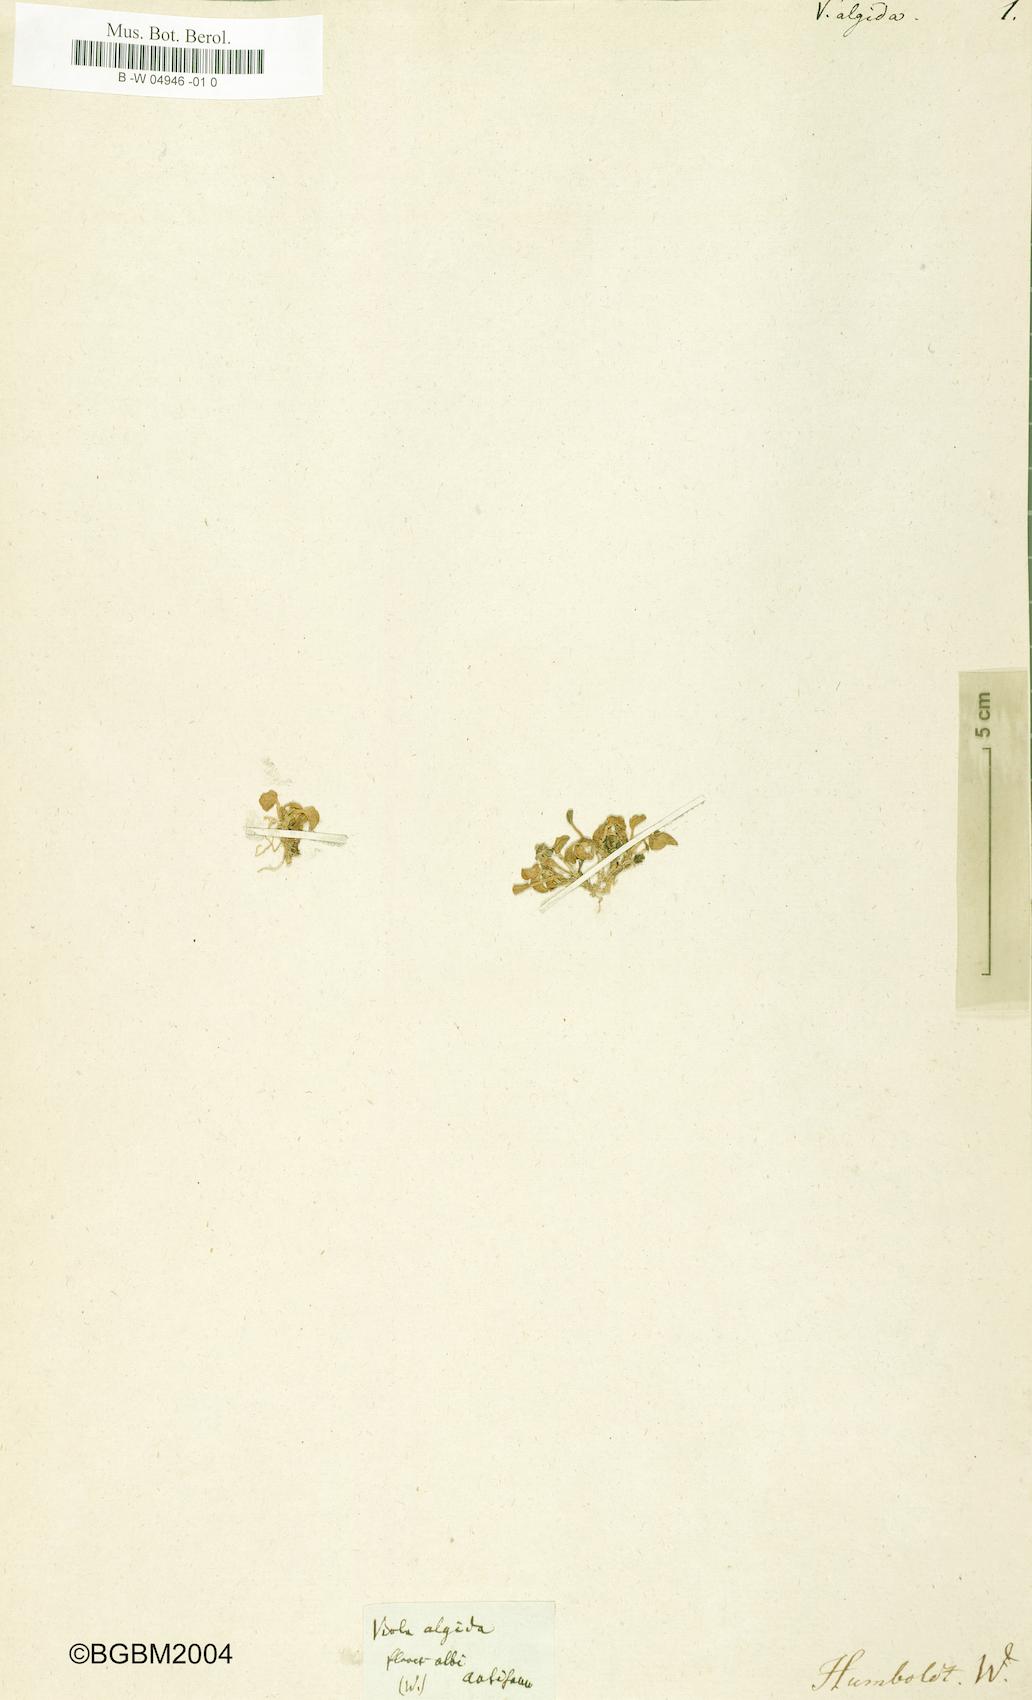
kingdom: Plantae
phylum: Tracheophyta
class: Magnoliopsida
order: Malpighiales
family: Violaceae
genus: Viola
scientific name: Viola algida
